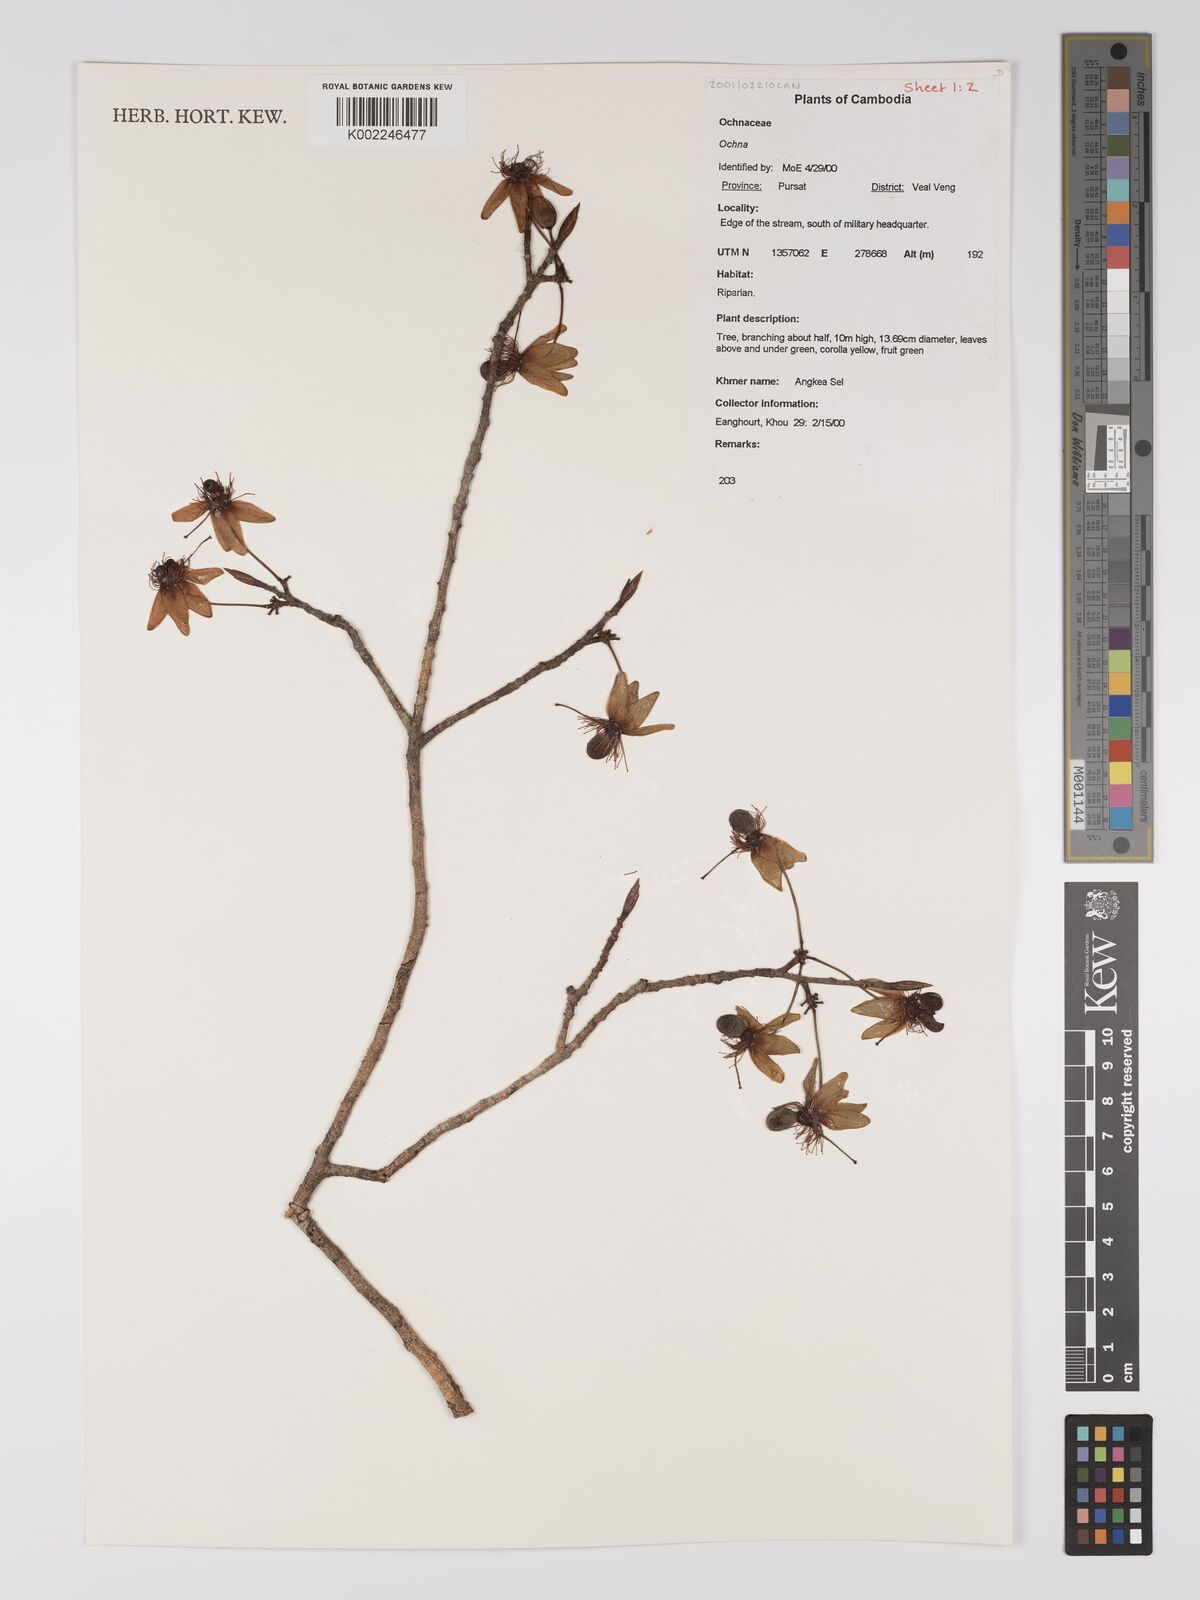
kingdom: Plantae
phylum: Tracheophyta
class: Magnoliopsida
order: Malpighiales
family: Ochnaceae
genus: Ochna
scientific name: Ochna
